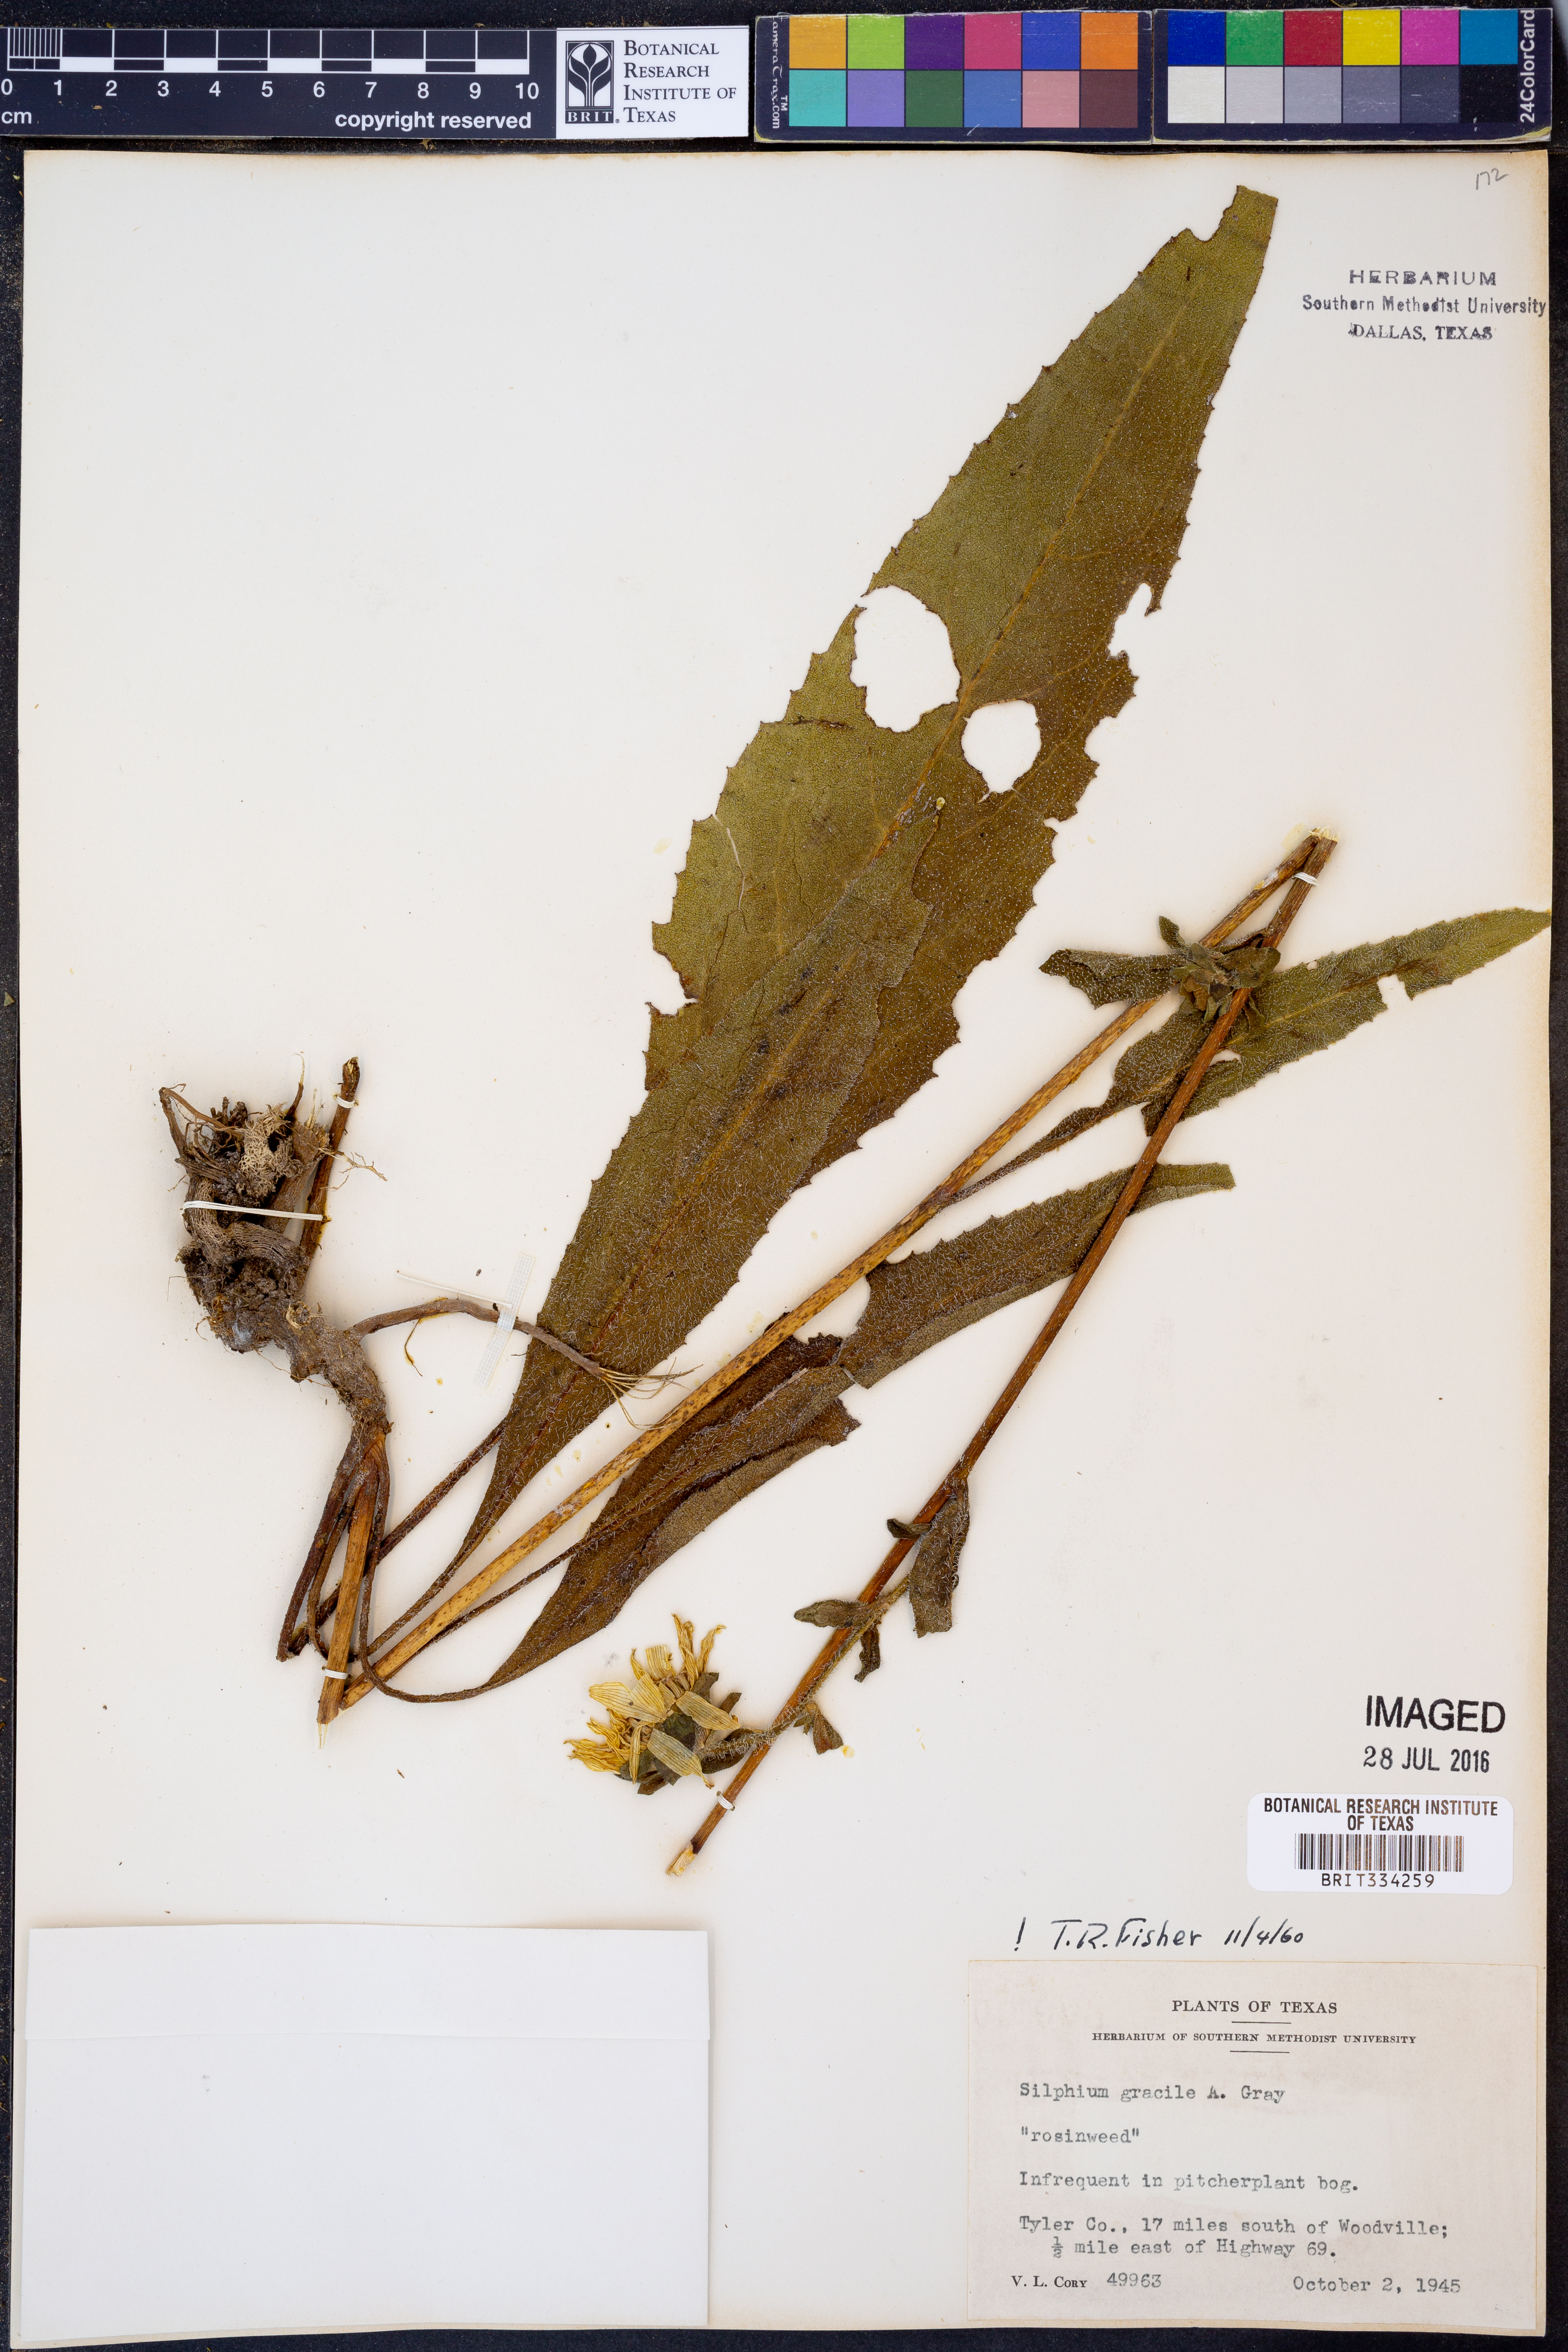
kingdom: Plantae
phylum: Tracheophyta
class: Magnoliopsida
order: Asterales
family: Asteraceae
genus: Silphium
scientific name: Silphium radula
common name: Roughleaf rosinweed
